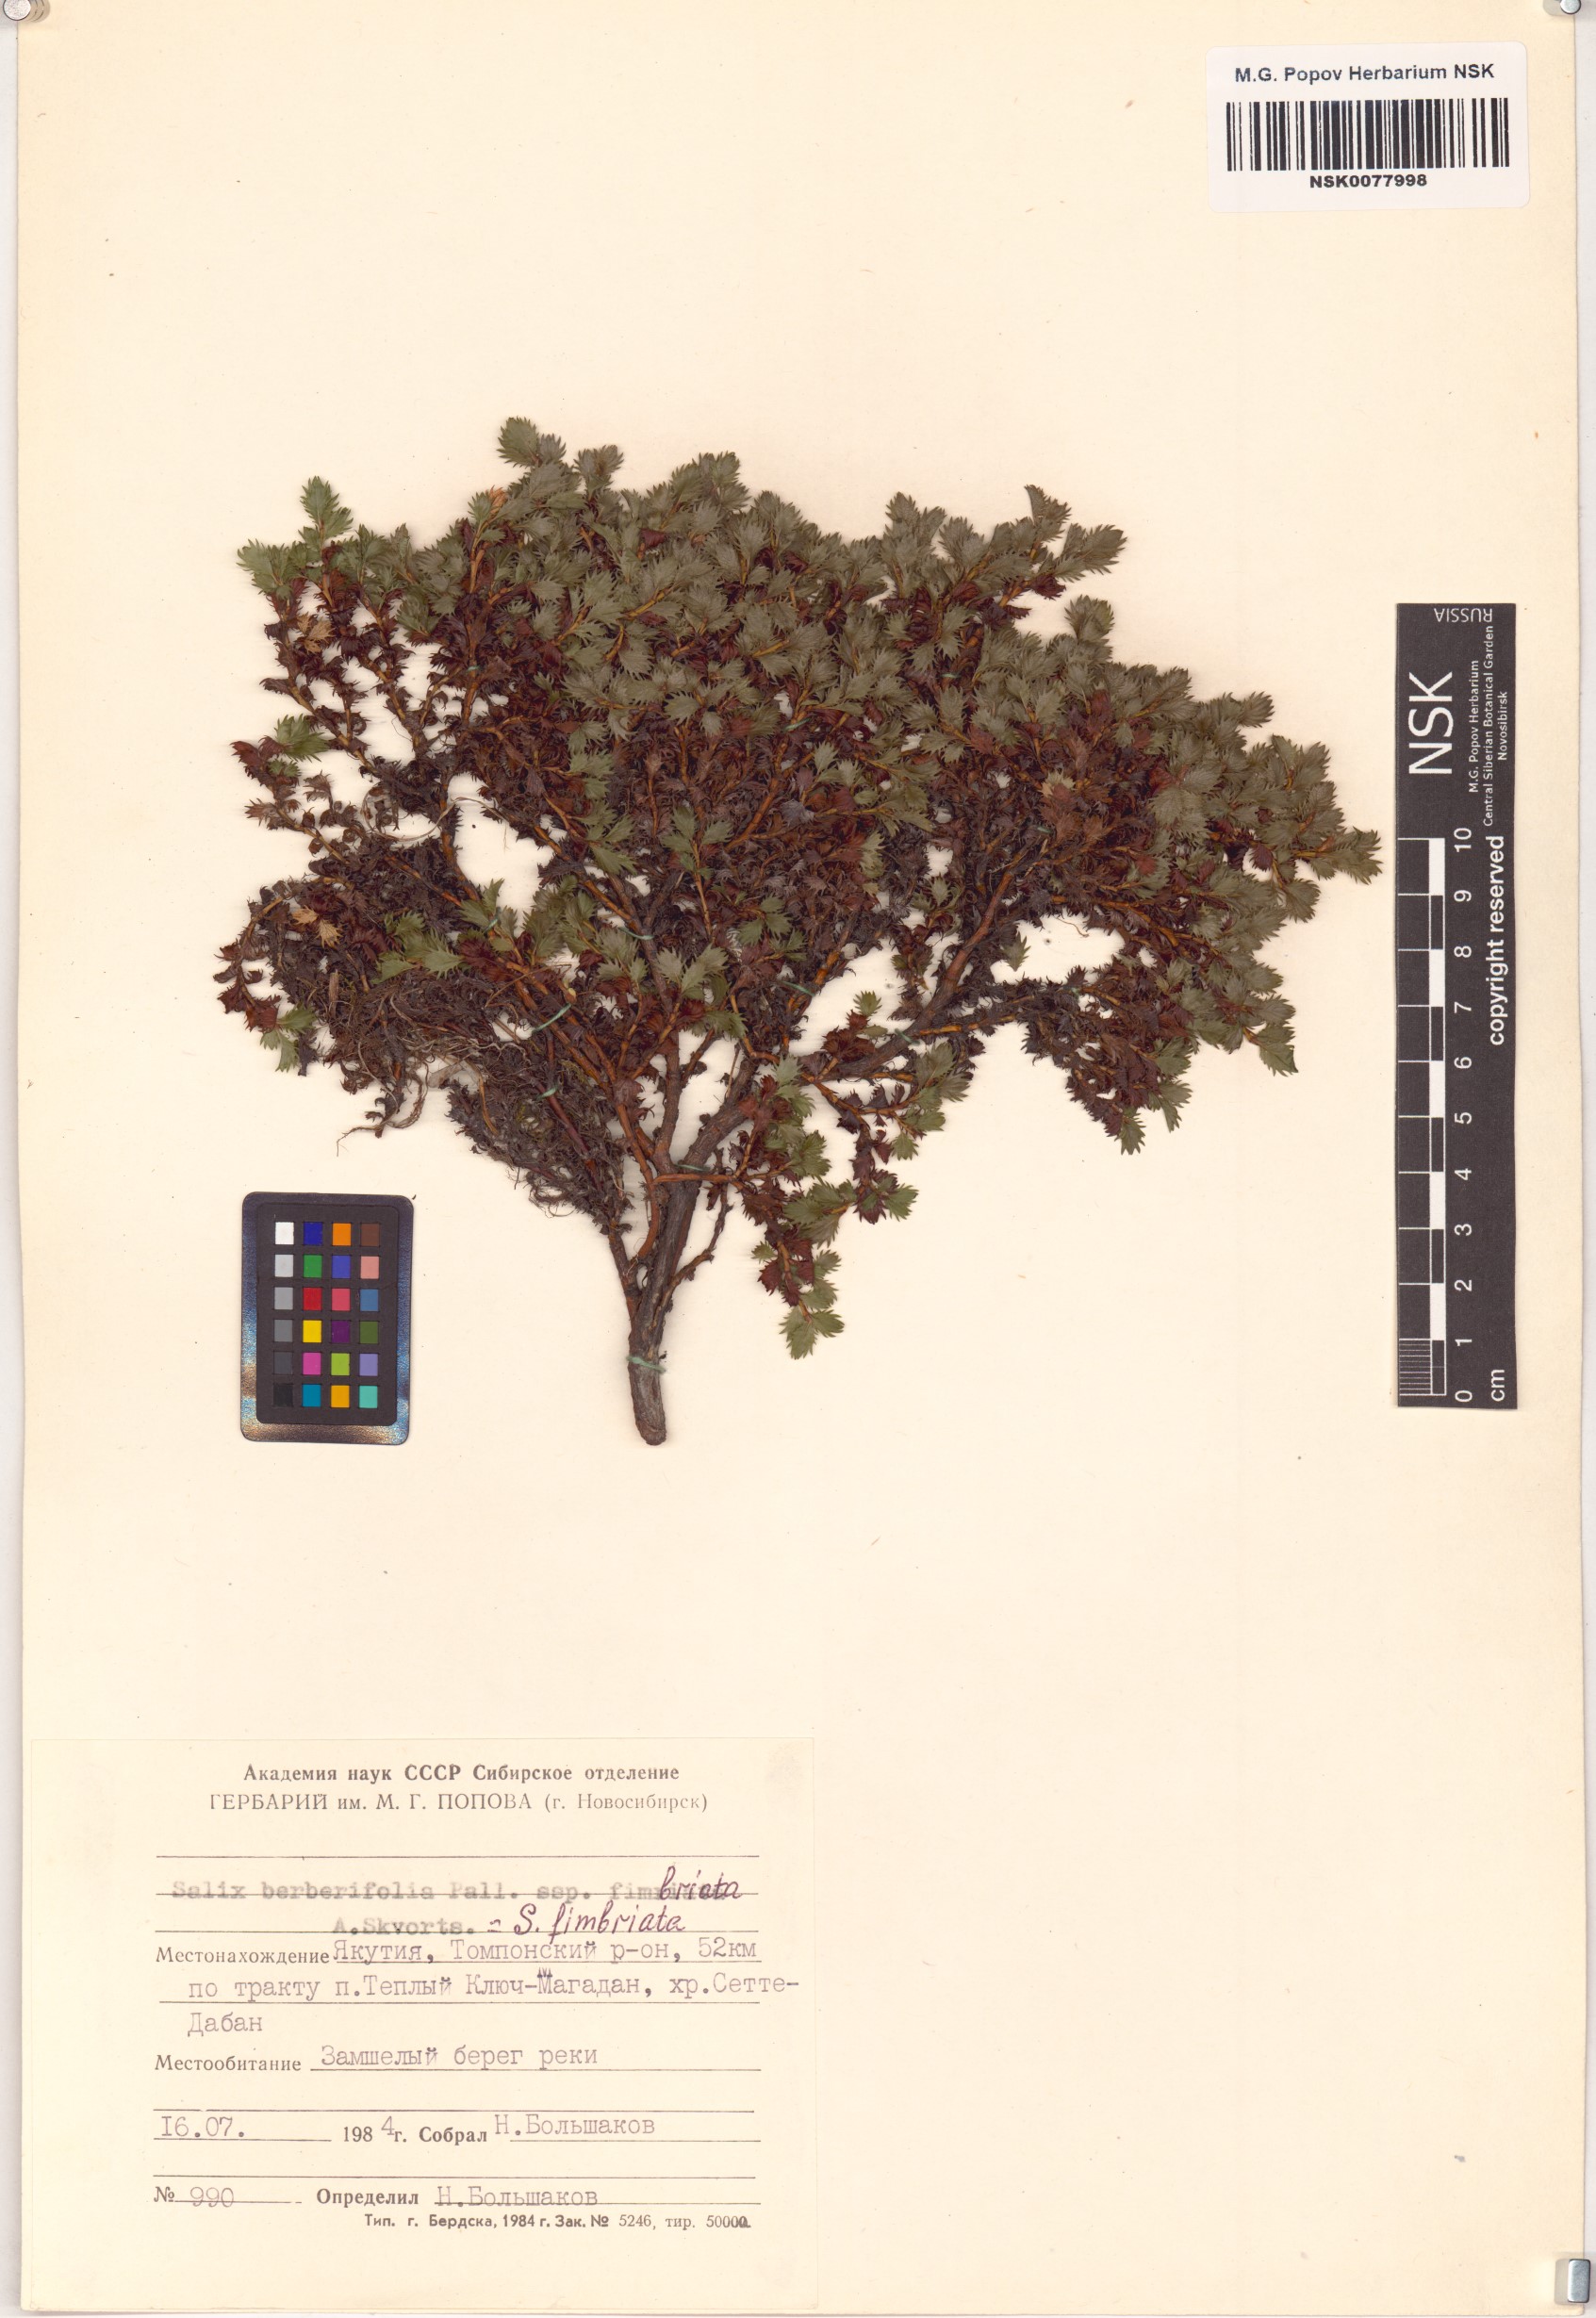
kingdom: Plantae
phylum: Tracheophyta
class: Magnoliopsida
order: Malpighiales
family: Salicaceae
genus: Salix
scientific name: Salix berberifolia
